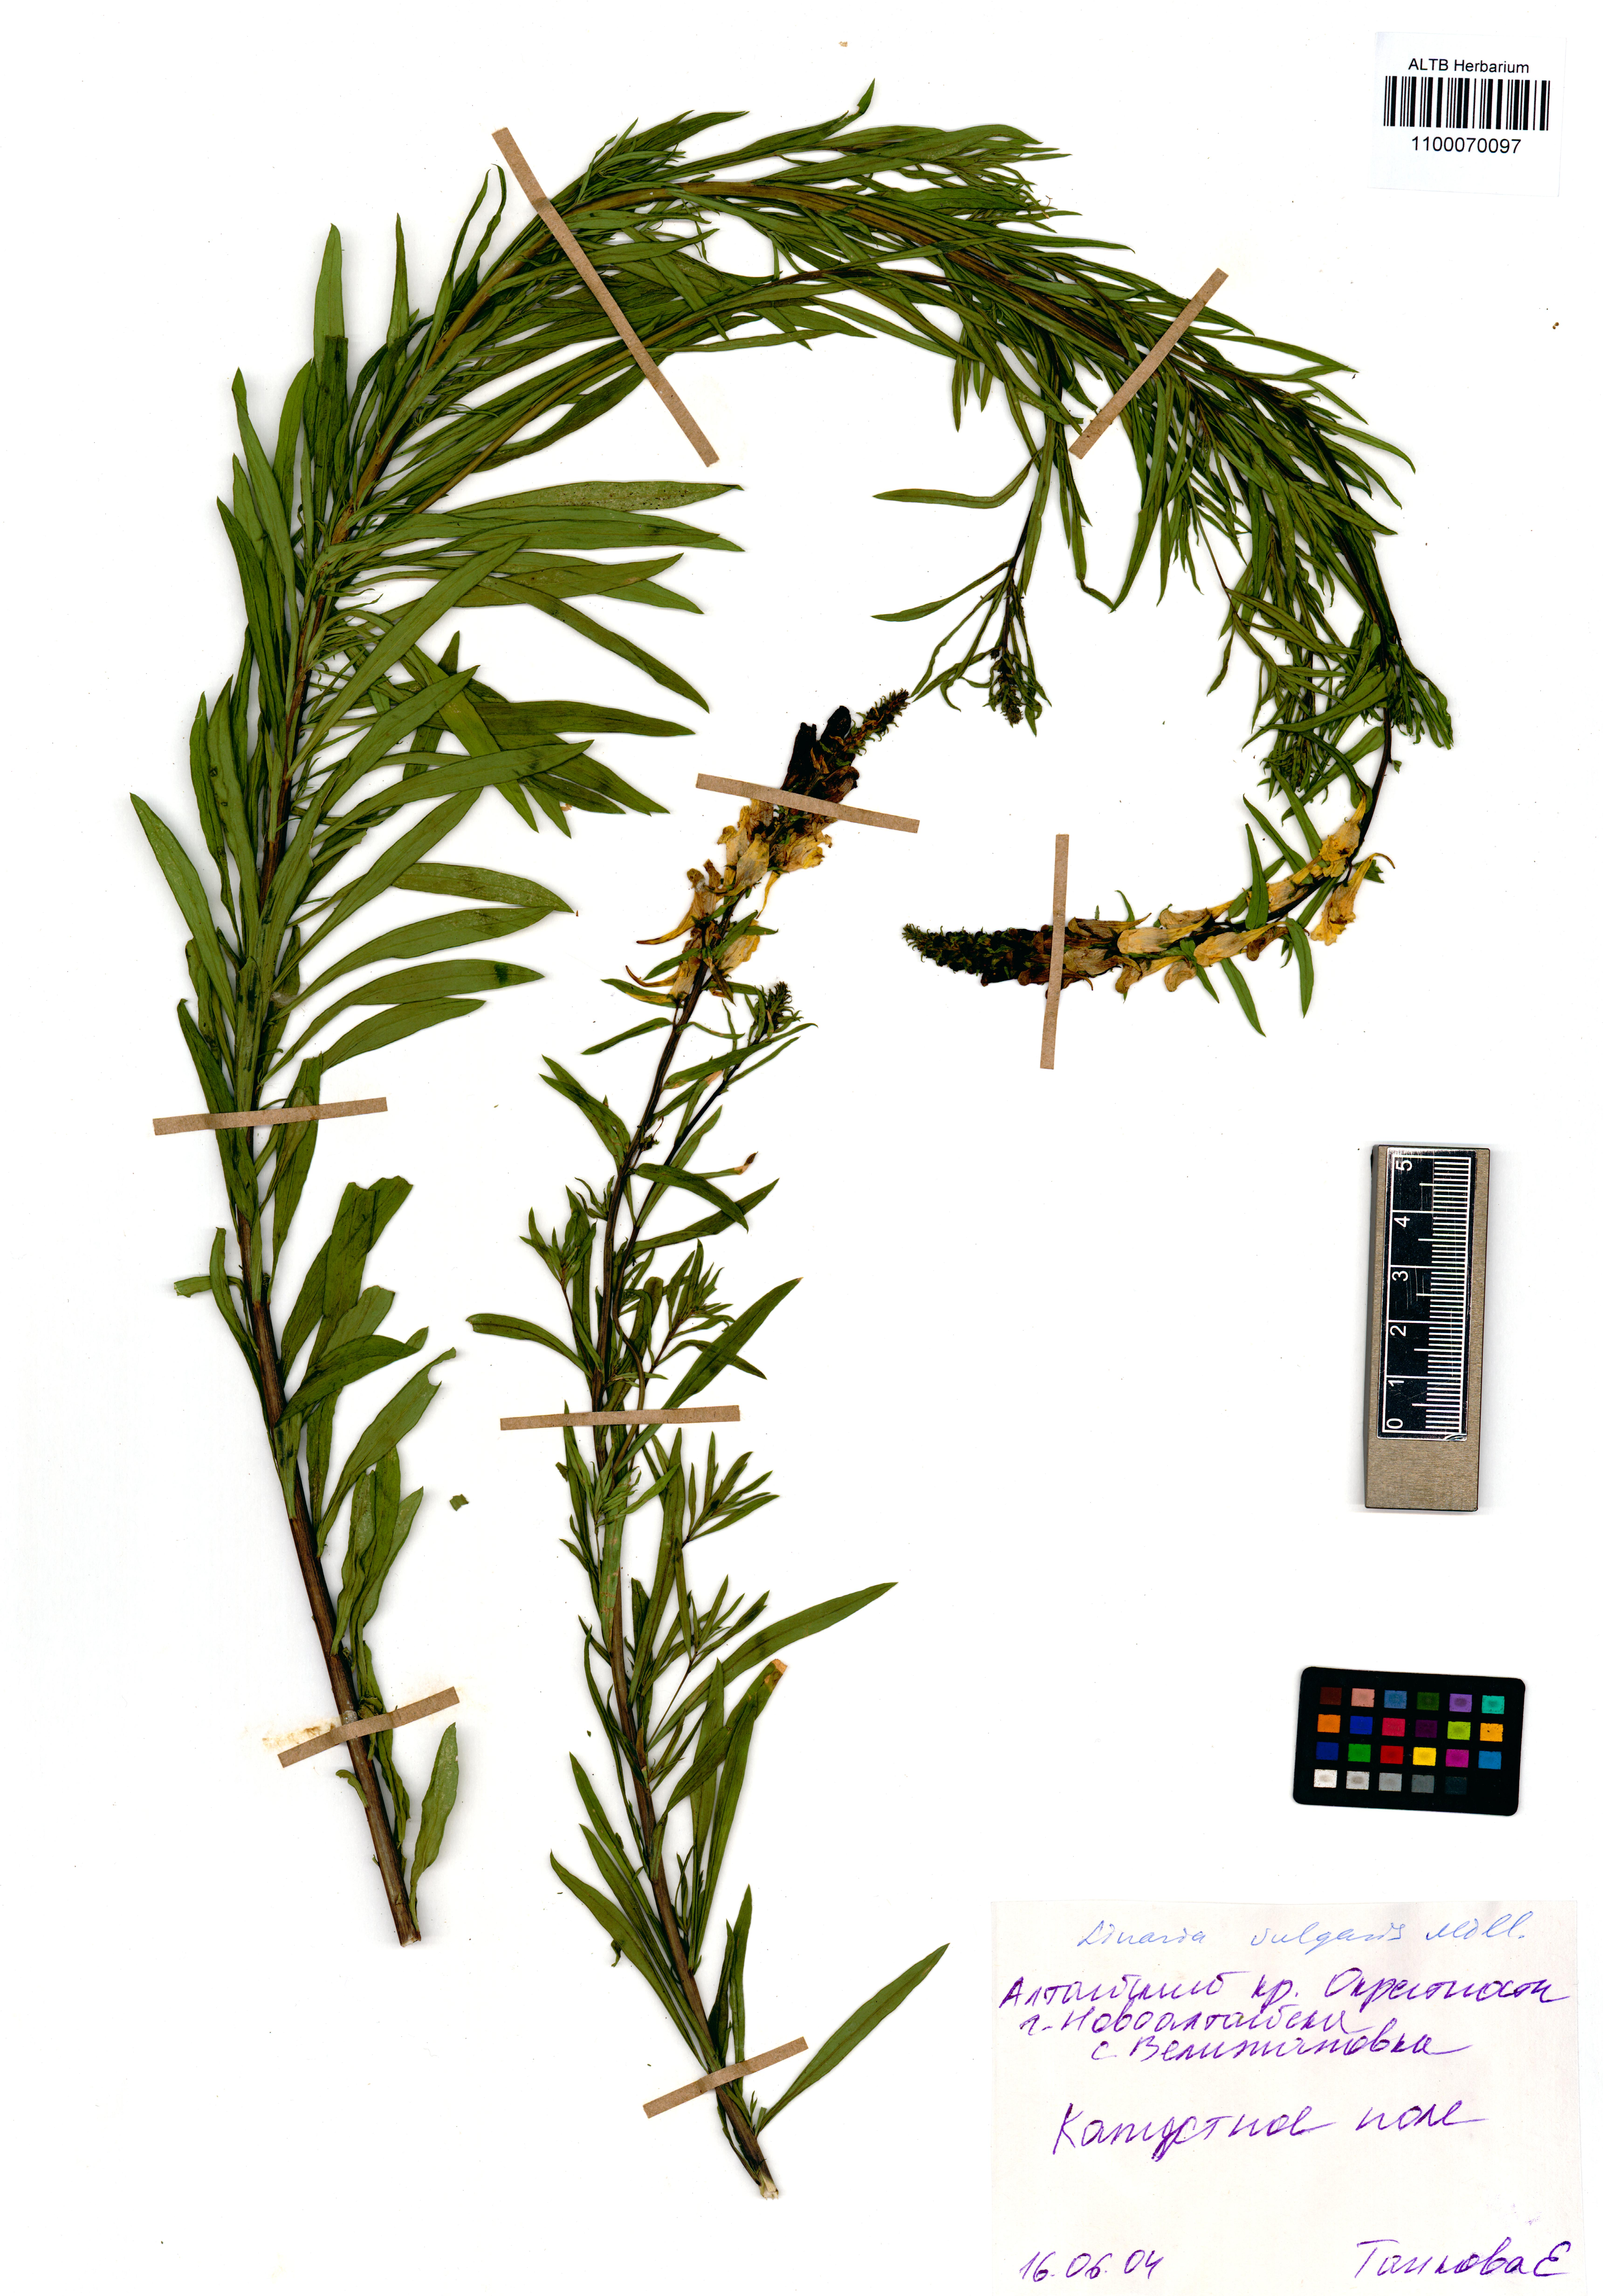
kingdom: Plantae
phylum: Tracheophyta
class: Magnoliopsida
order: Lamiales
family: Plantaginaceae
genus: Linaria
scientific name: Linaria vulgaris
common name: Butter and eggs
